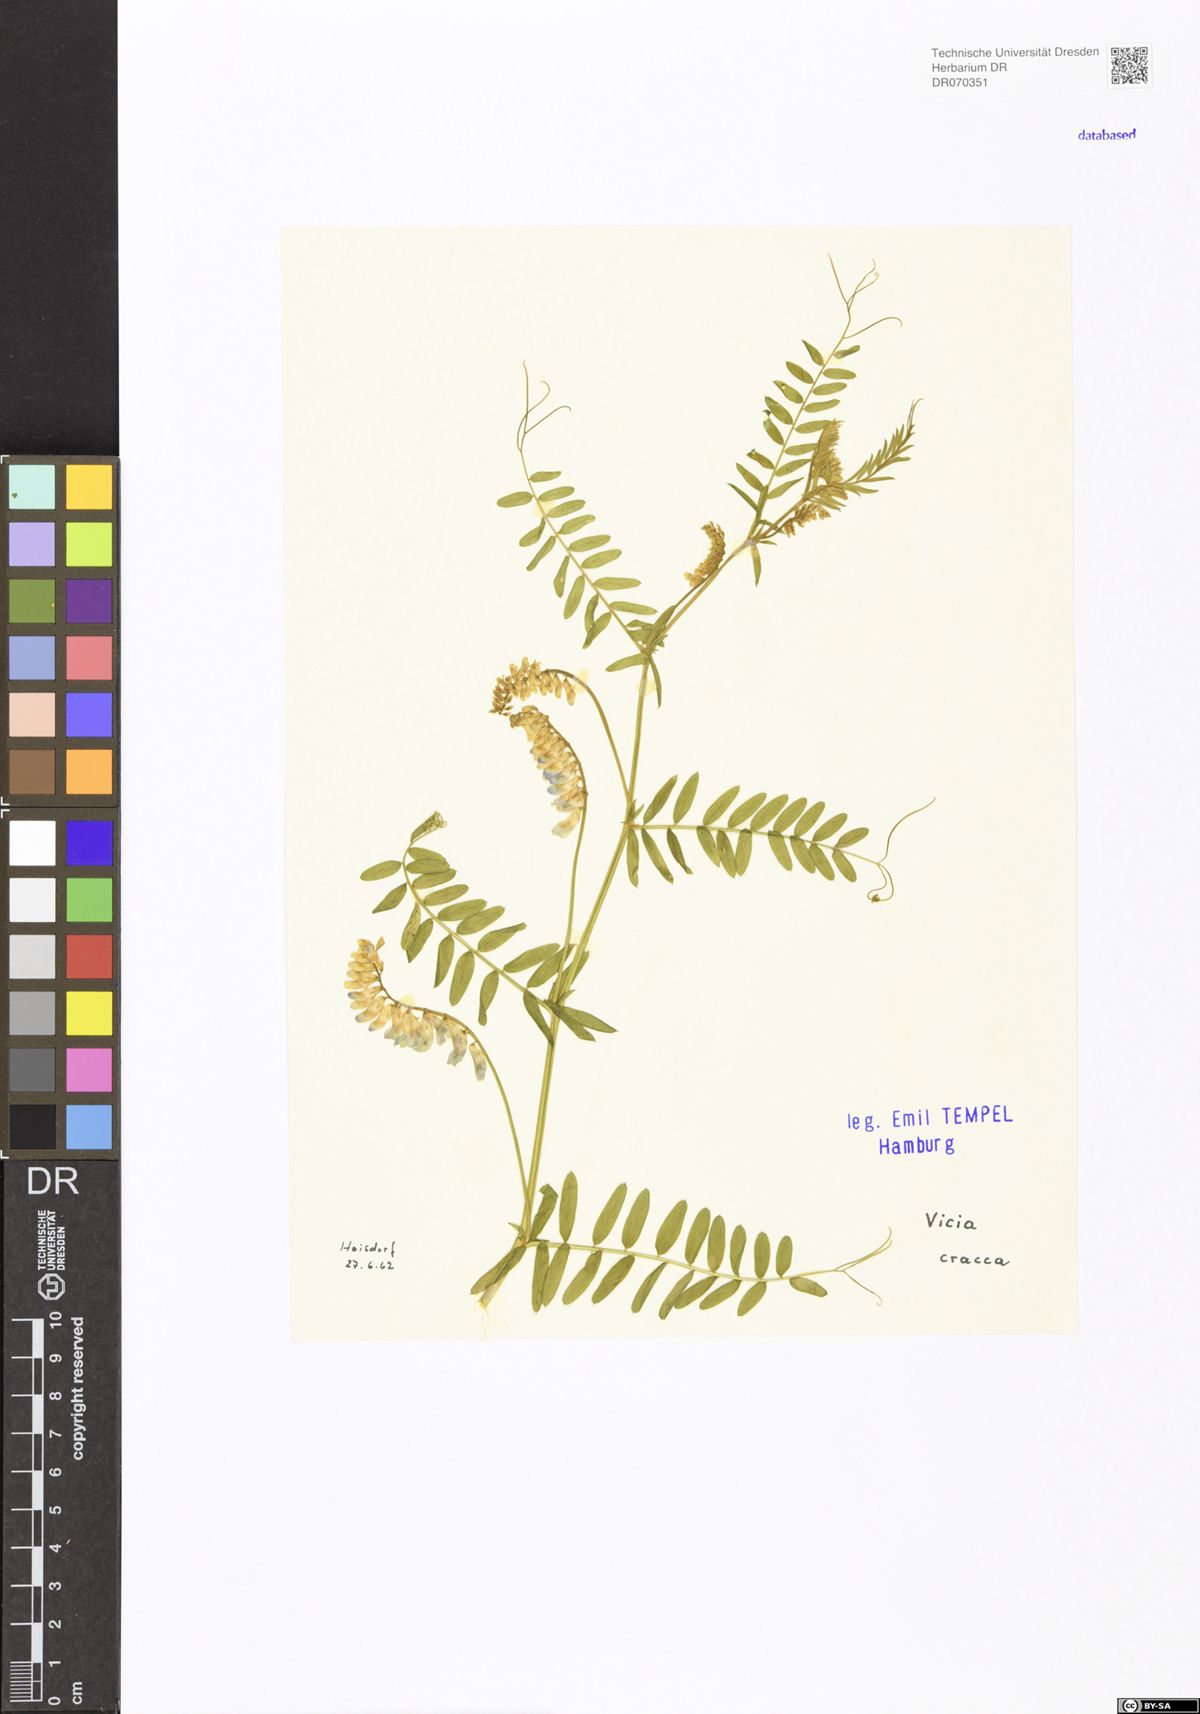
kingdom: Plantae
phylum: Tracheophyta
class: Magnoliopsida
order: Fabales
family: Fabaceae
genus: Vicia
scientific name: Vicia cracca
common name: Bird vetch
